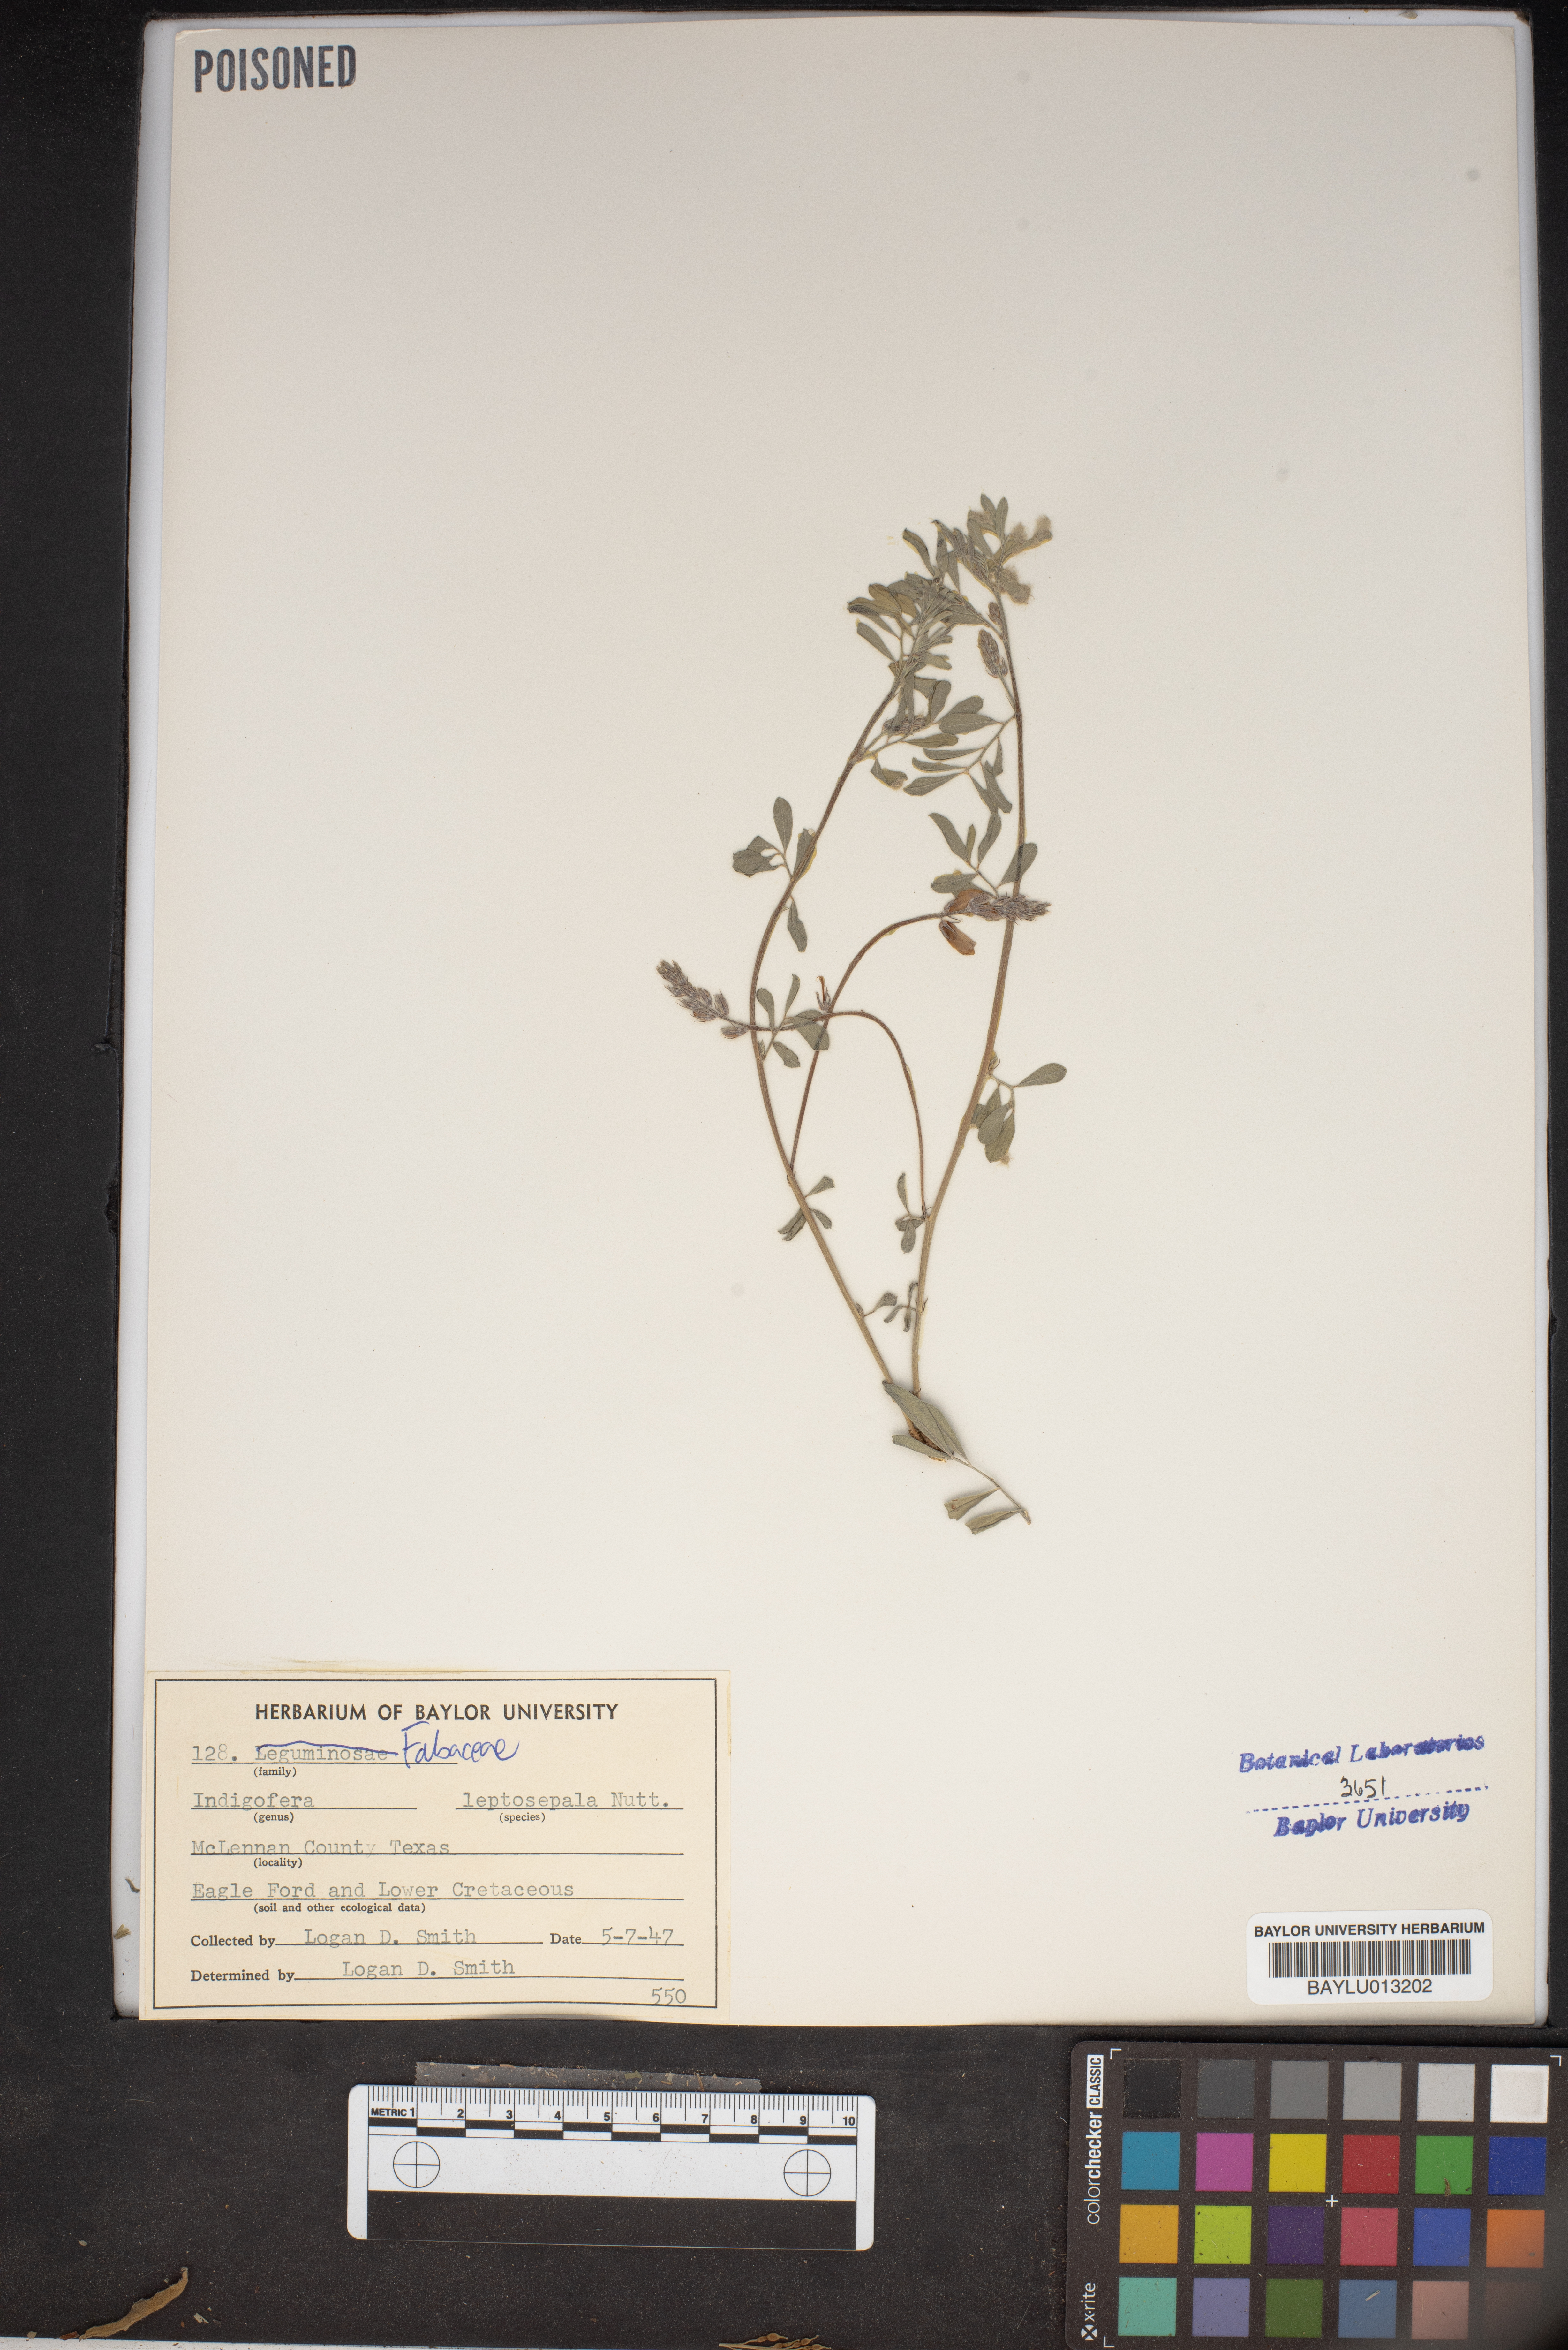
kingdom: Plantae
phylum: Tracheophyta
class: Magnoliopsida
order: Fabales
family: Fabaceae
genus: Indigofera
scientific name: Indigofera argutidens
